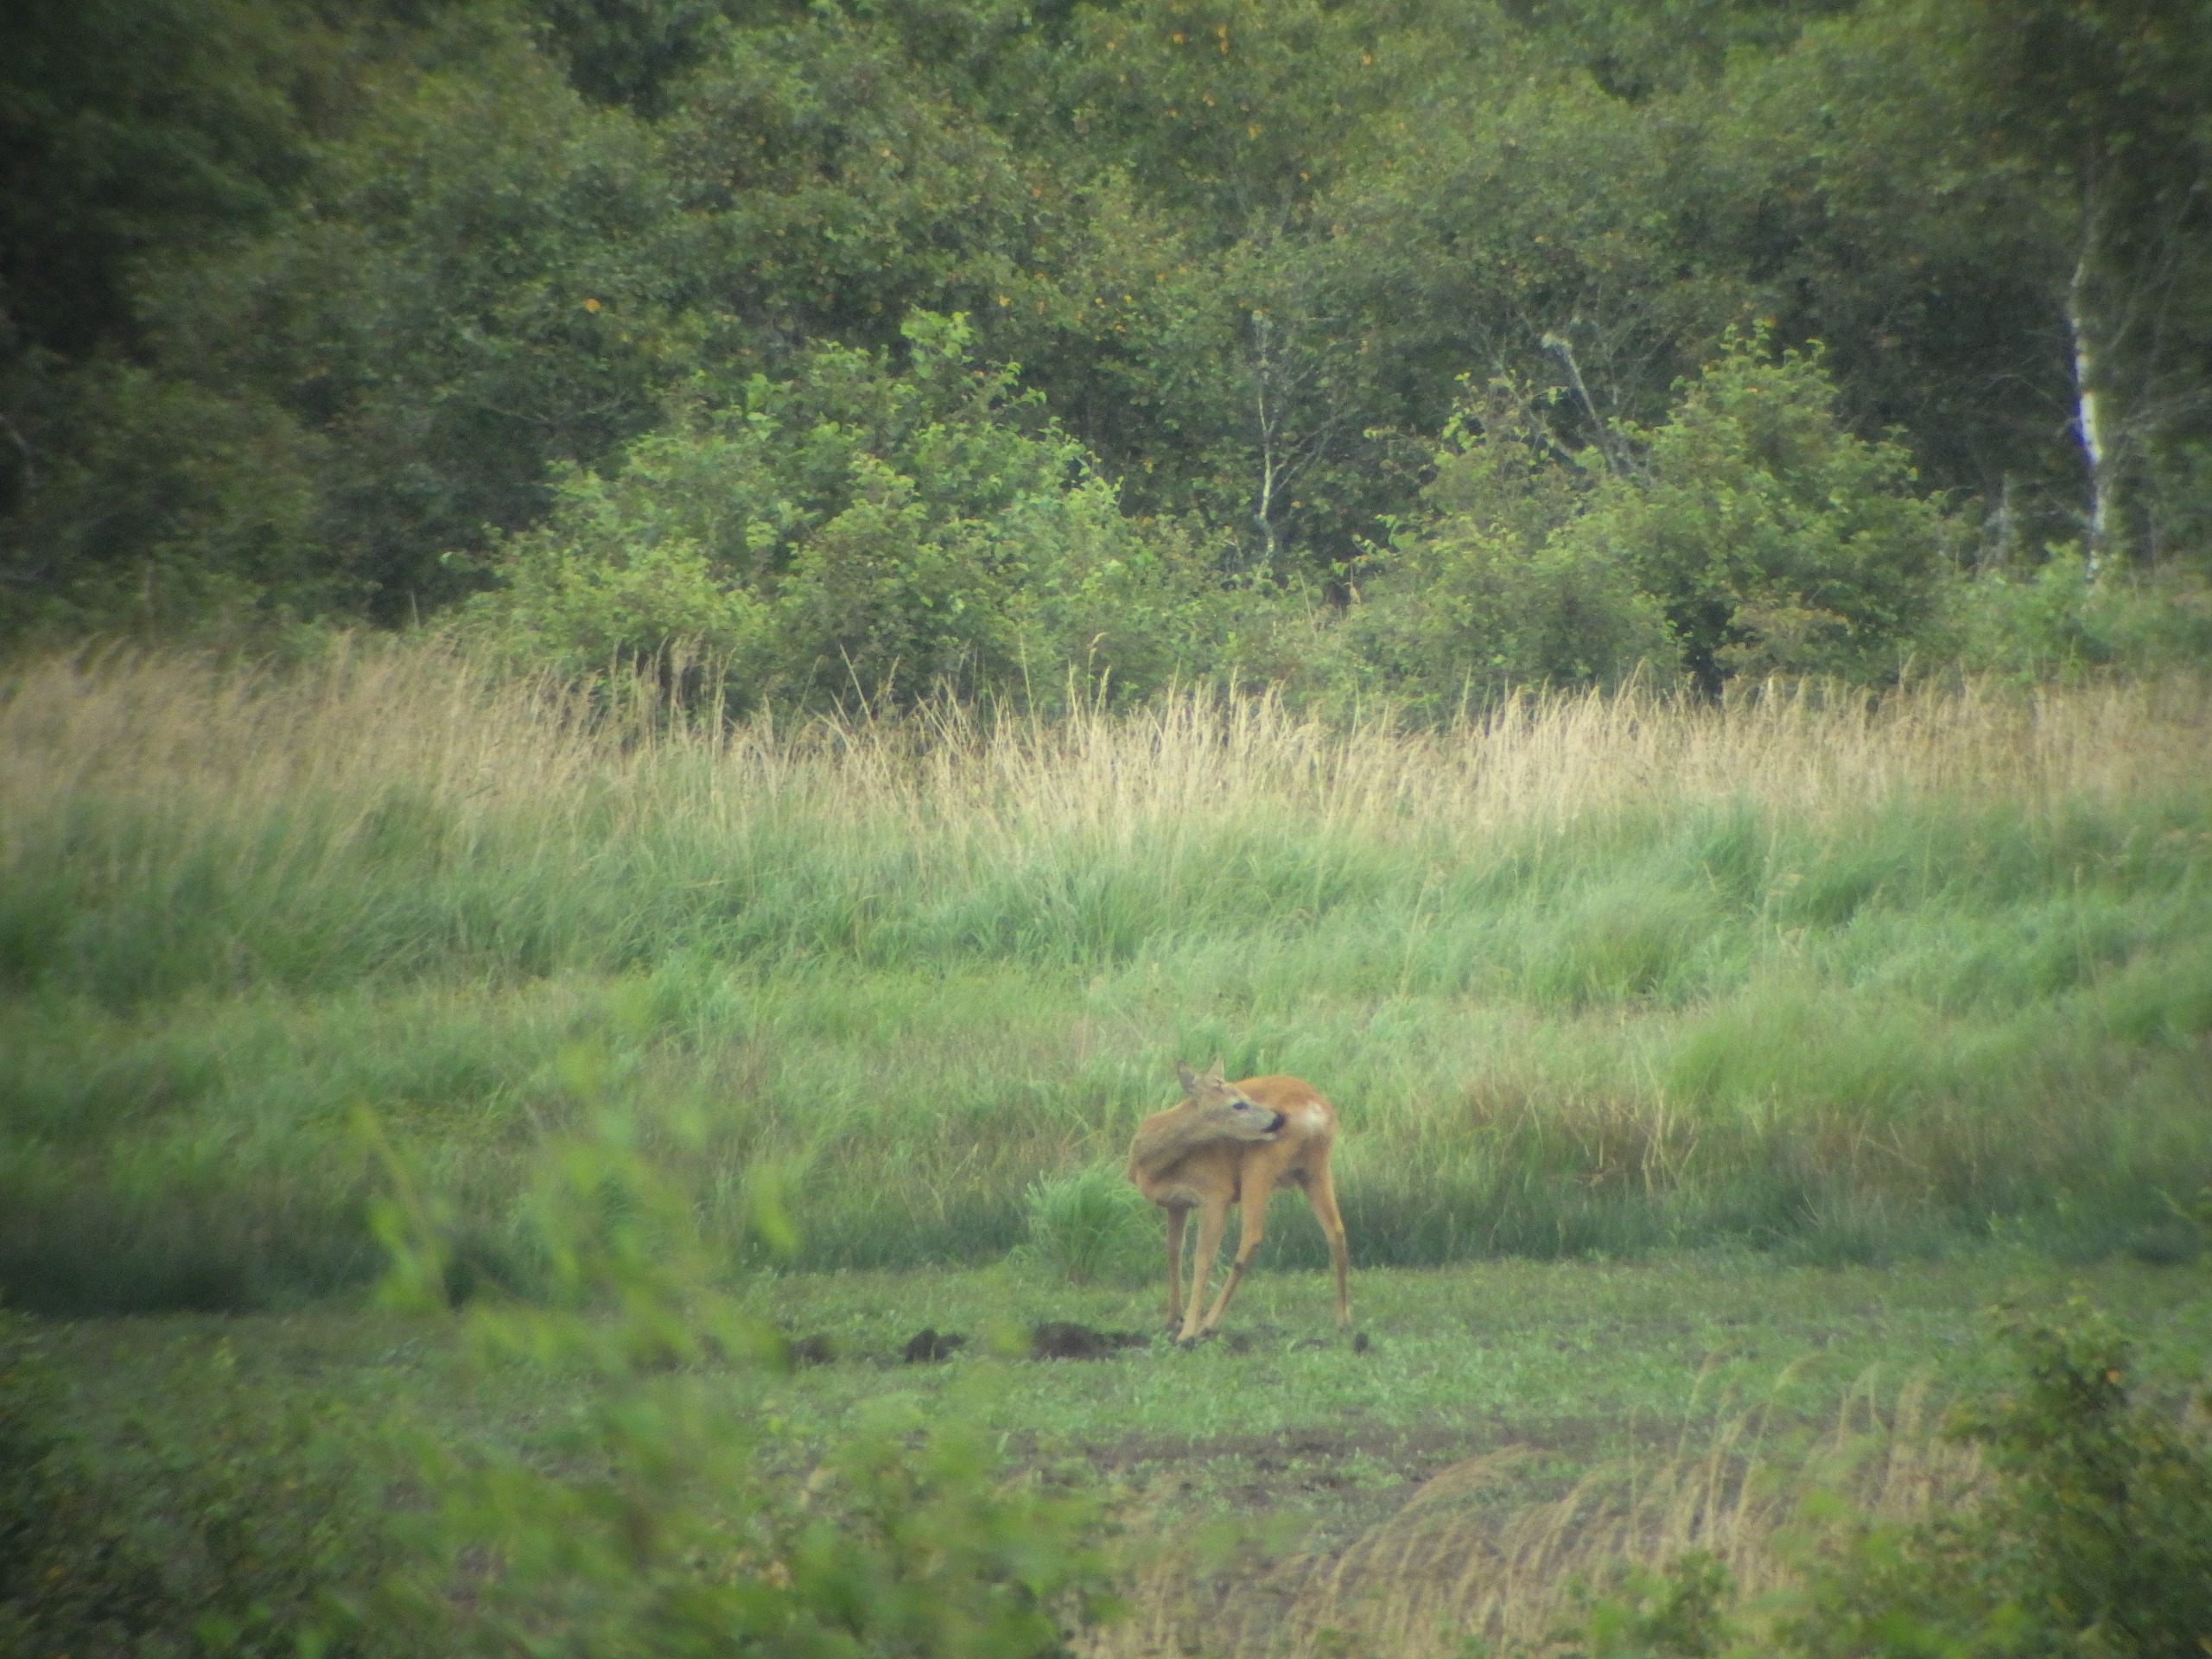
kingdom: Animalia
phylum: Chordata
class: Mammalia
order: Artiodactyla
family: Cervidae
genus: Capreolus
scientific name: Capreolus capreolus
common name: Rådyr
